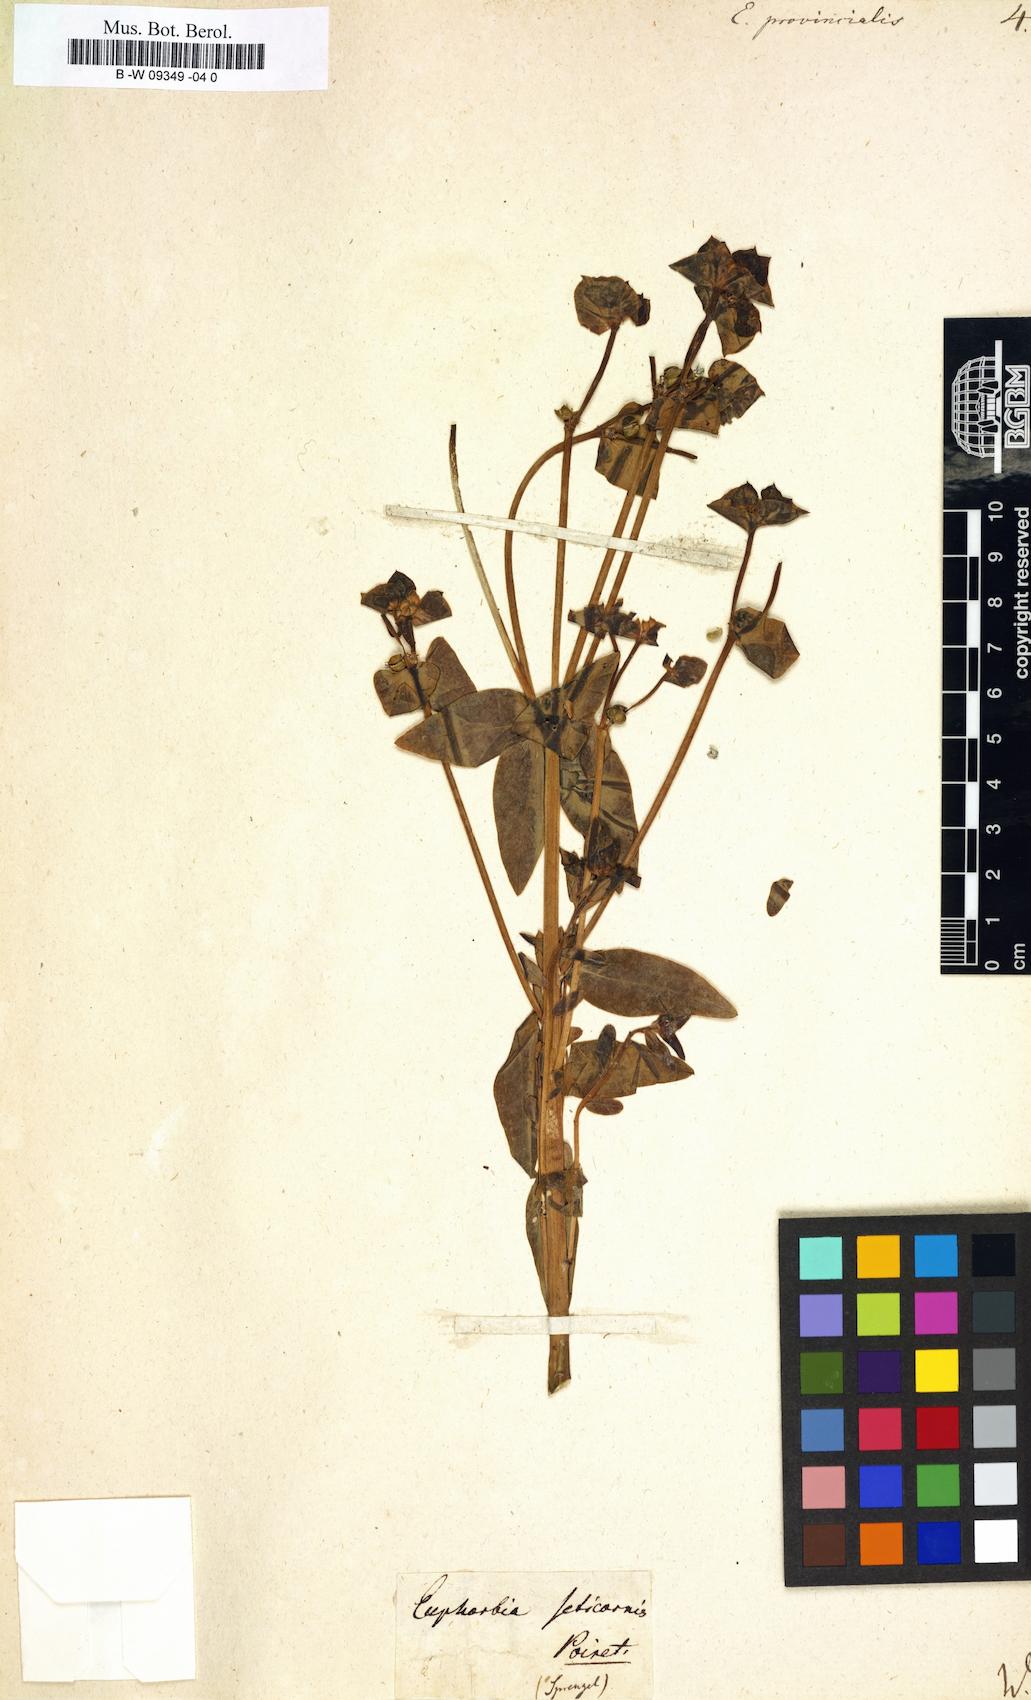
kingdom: Plantae
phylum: Tracheophyta
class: Magnoliopsida
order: Malpighiales
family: Euphorbiaceae
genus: Euphorbia
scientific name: Euphorbia terracina
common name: Geraldton carnation weed
